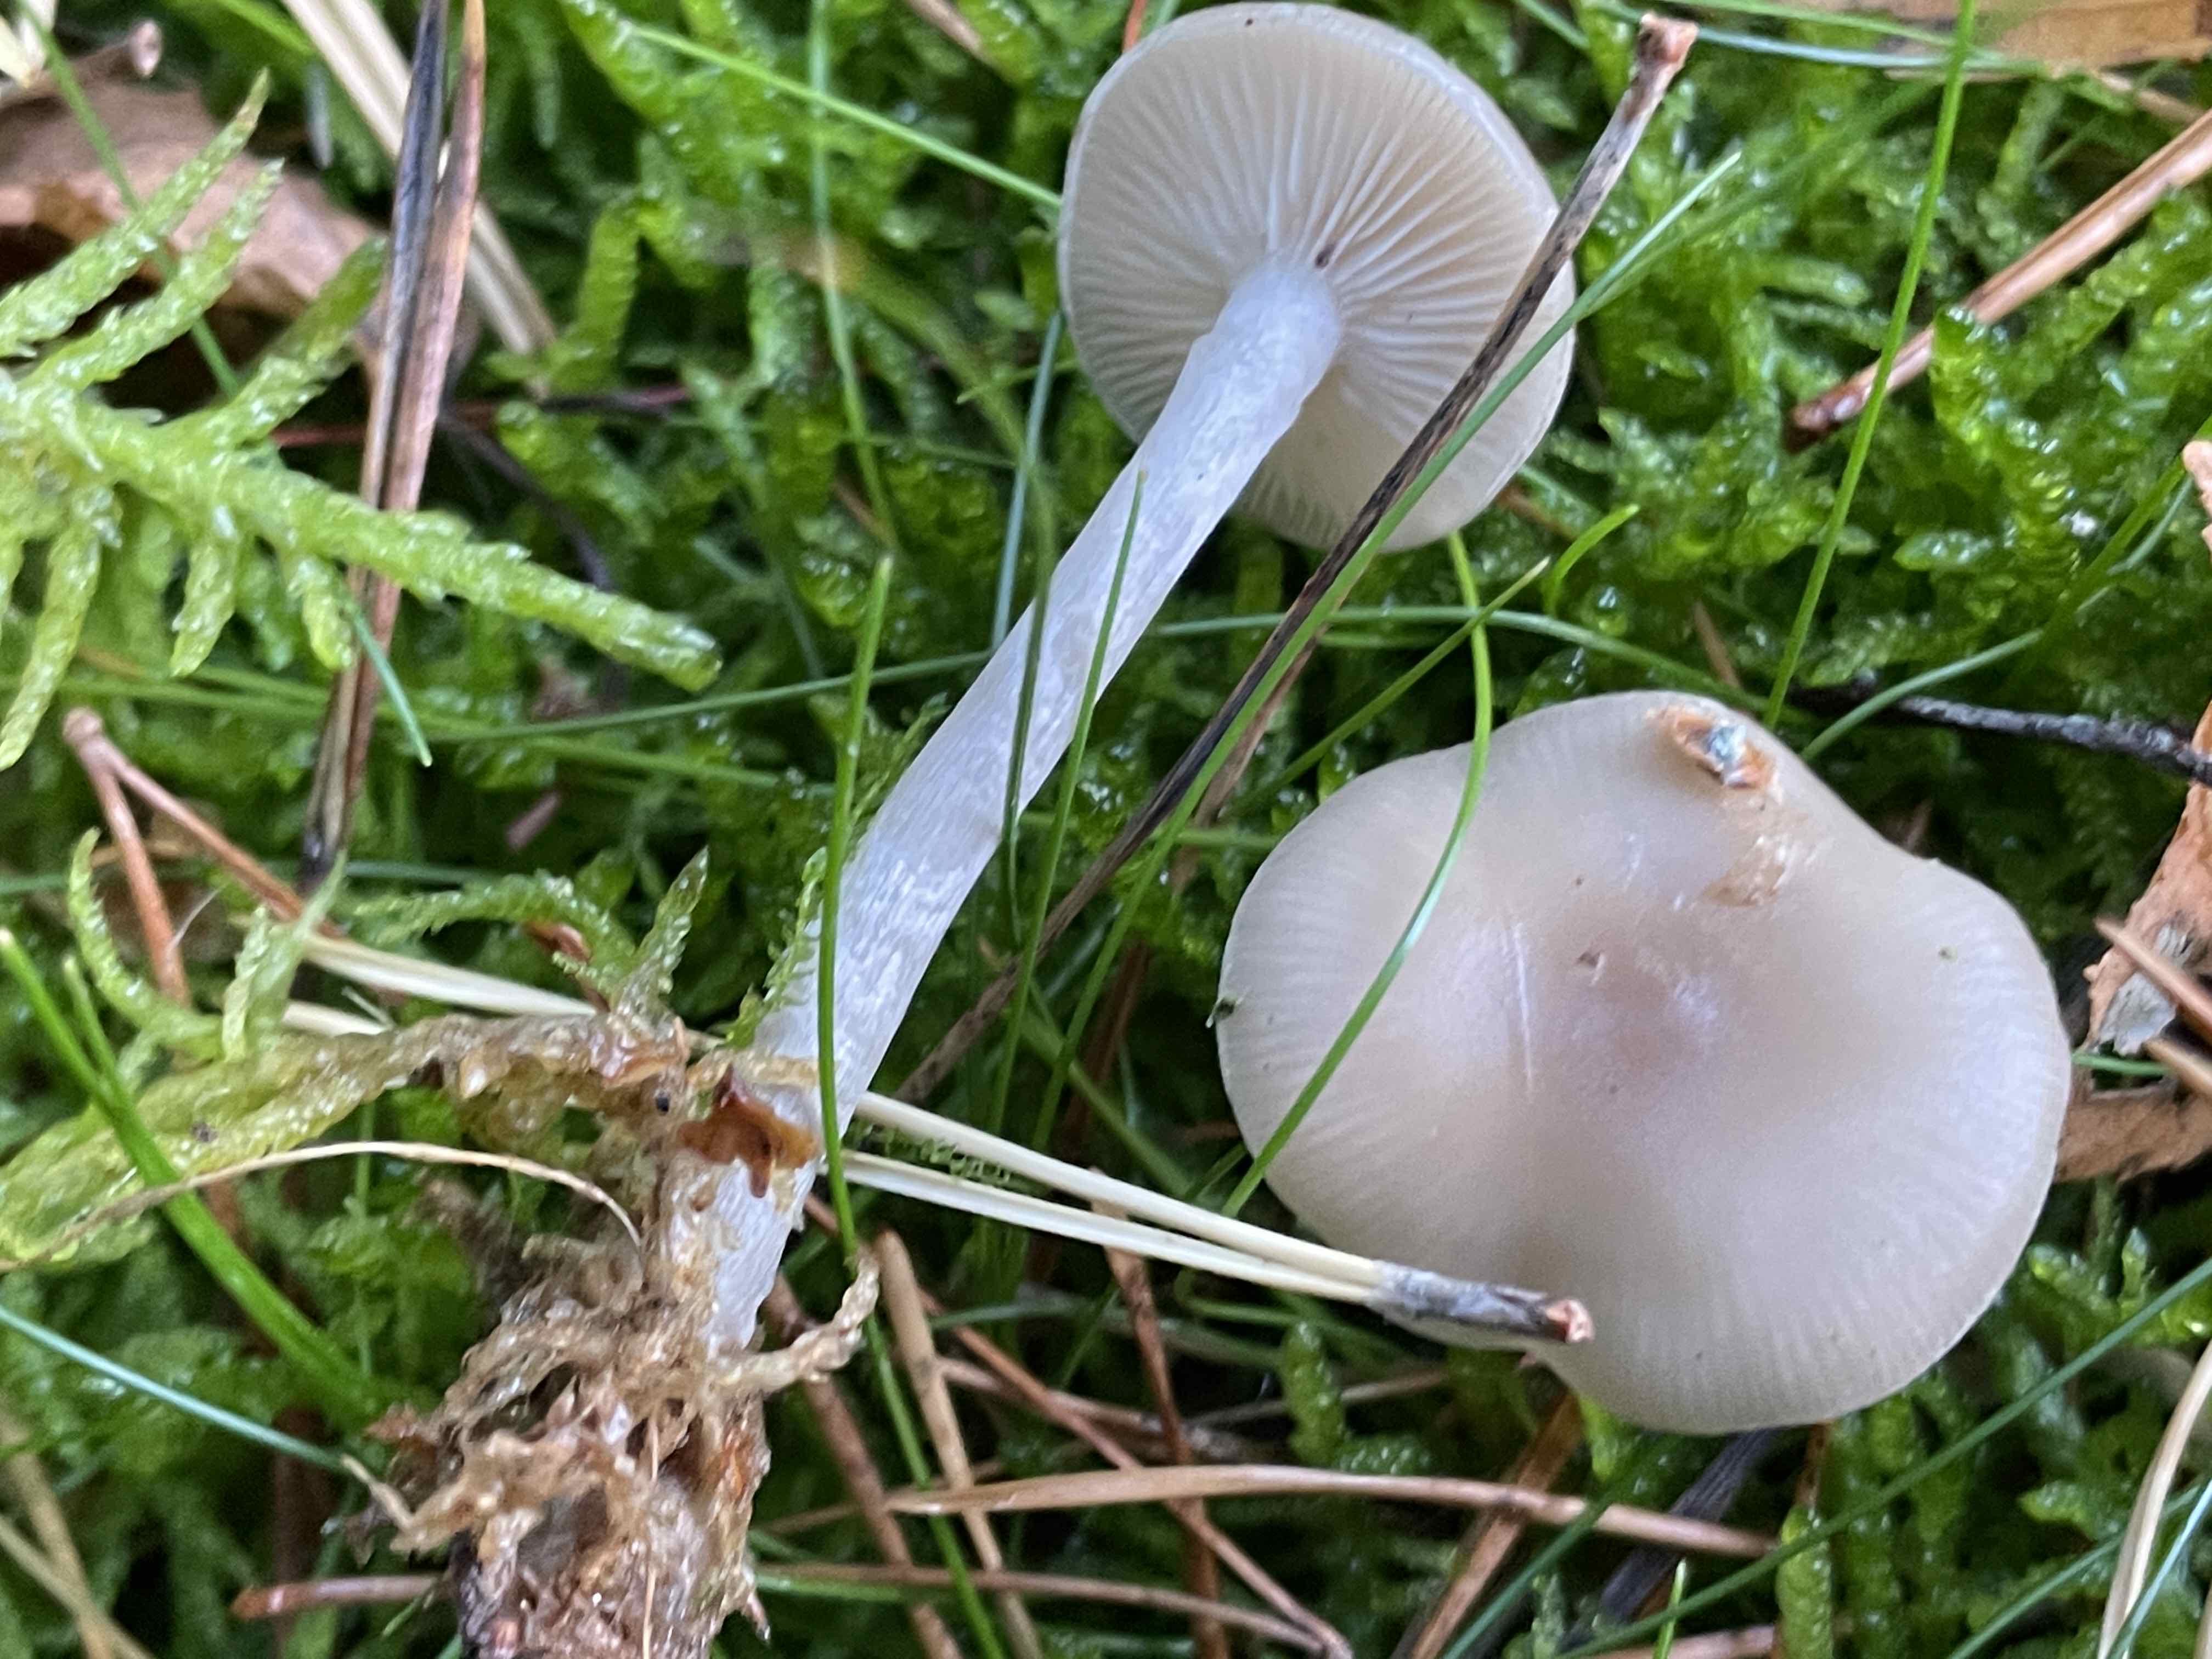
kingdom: Fungi
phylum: Basidiomycota
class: Agaricomycetes
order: Agaricales
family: Tricholomataceae
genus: Clitocybe
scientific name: Clitocybe fragrans
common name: vellugtende tragthat
